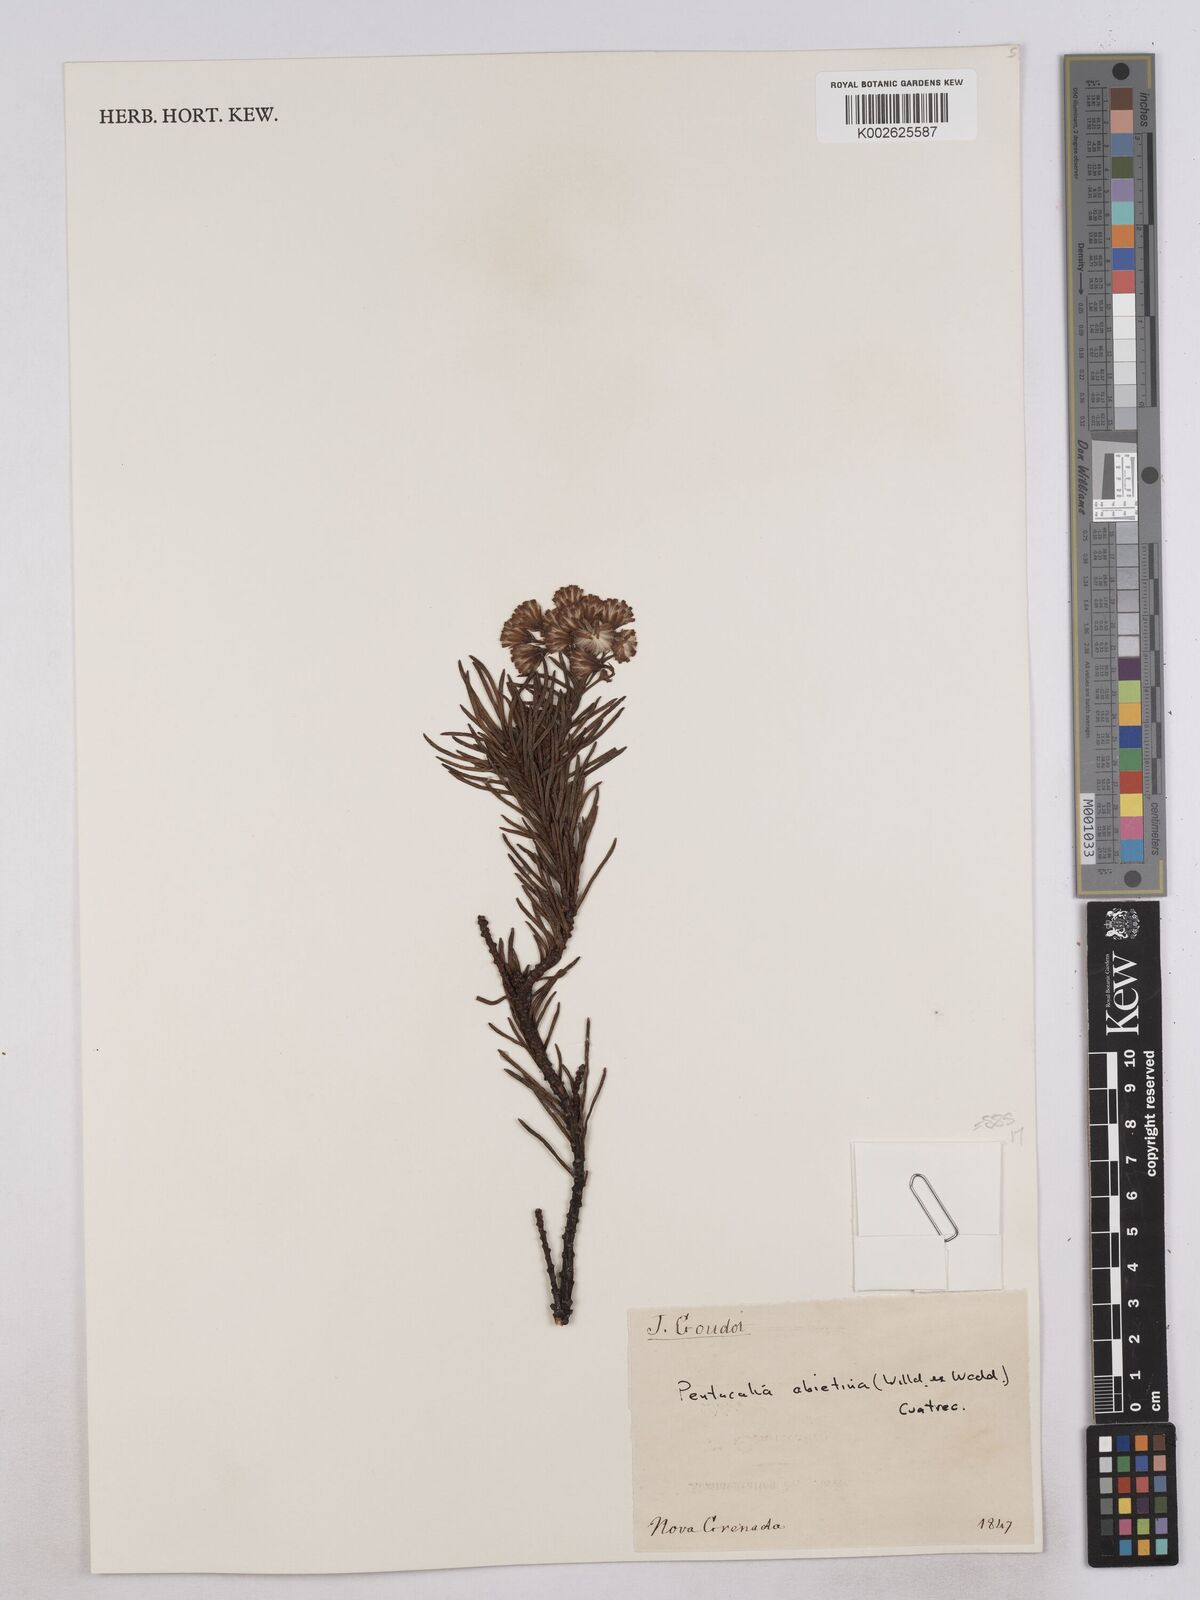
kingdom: Plantae
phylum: Tracheophyta
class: Magnoliopsida
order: Asterales
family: Asteraceae
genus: Monticalia
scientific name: Monticalia abietina
